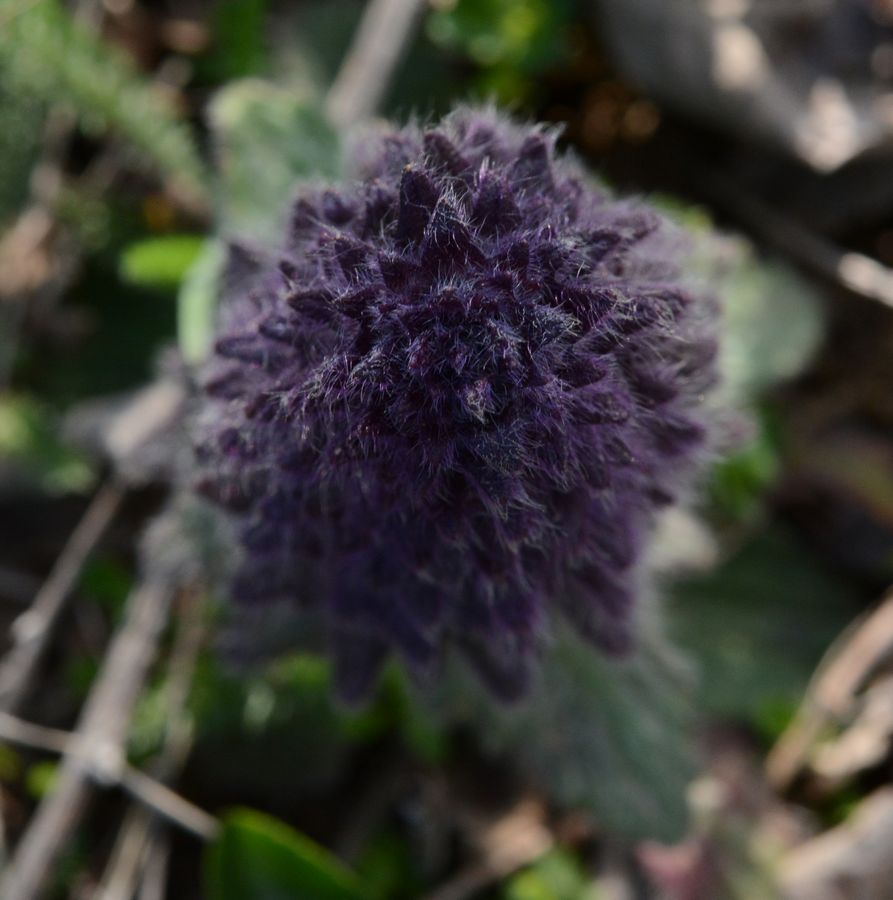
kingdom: Plantae
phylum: Tracheophyta
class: Magnoliopsida
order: Lamiales
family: Lamiaceae
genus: Ajuga
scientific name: Ajuga orientalis
